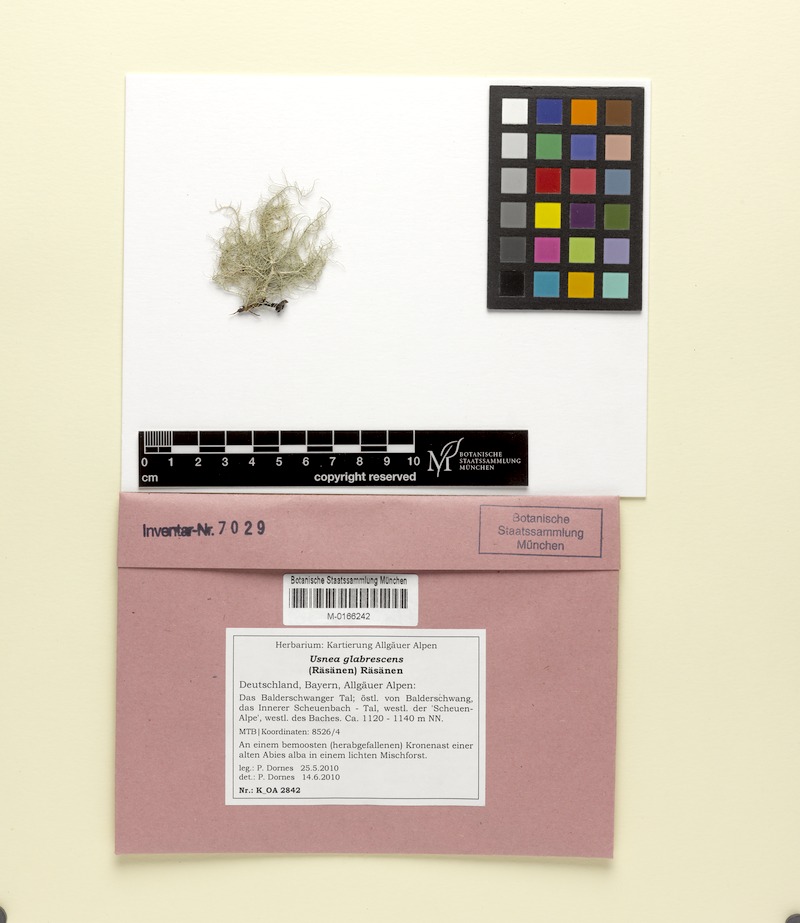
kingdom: Fungi
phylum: Ascomycota
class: Lecanoromycetes
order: Lecanorales
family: Parmeliaceae
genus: Usnea
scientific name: Usnea glabrescens
